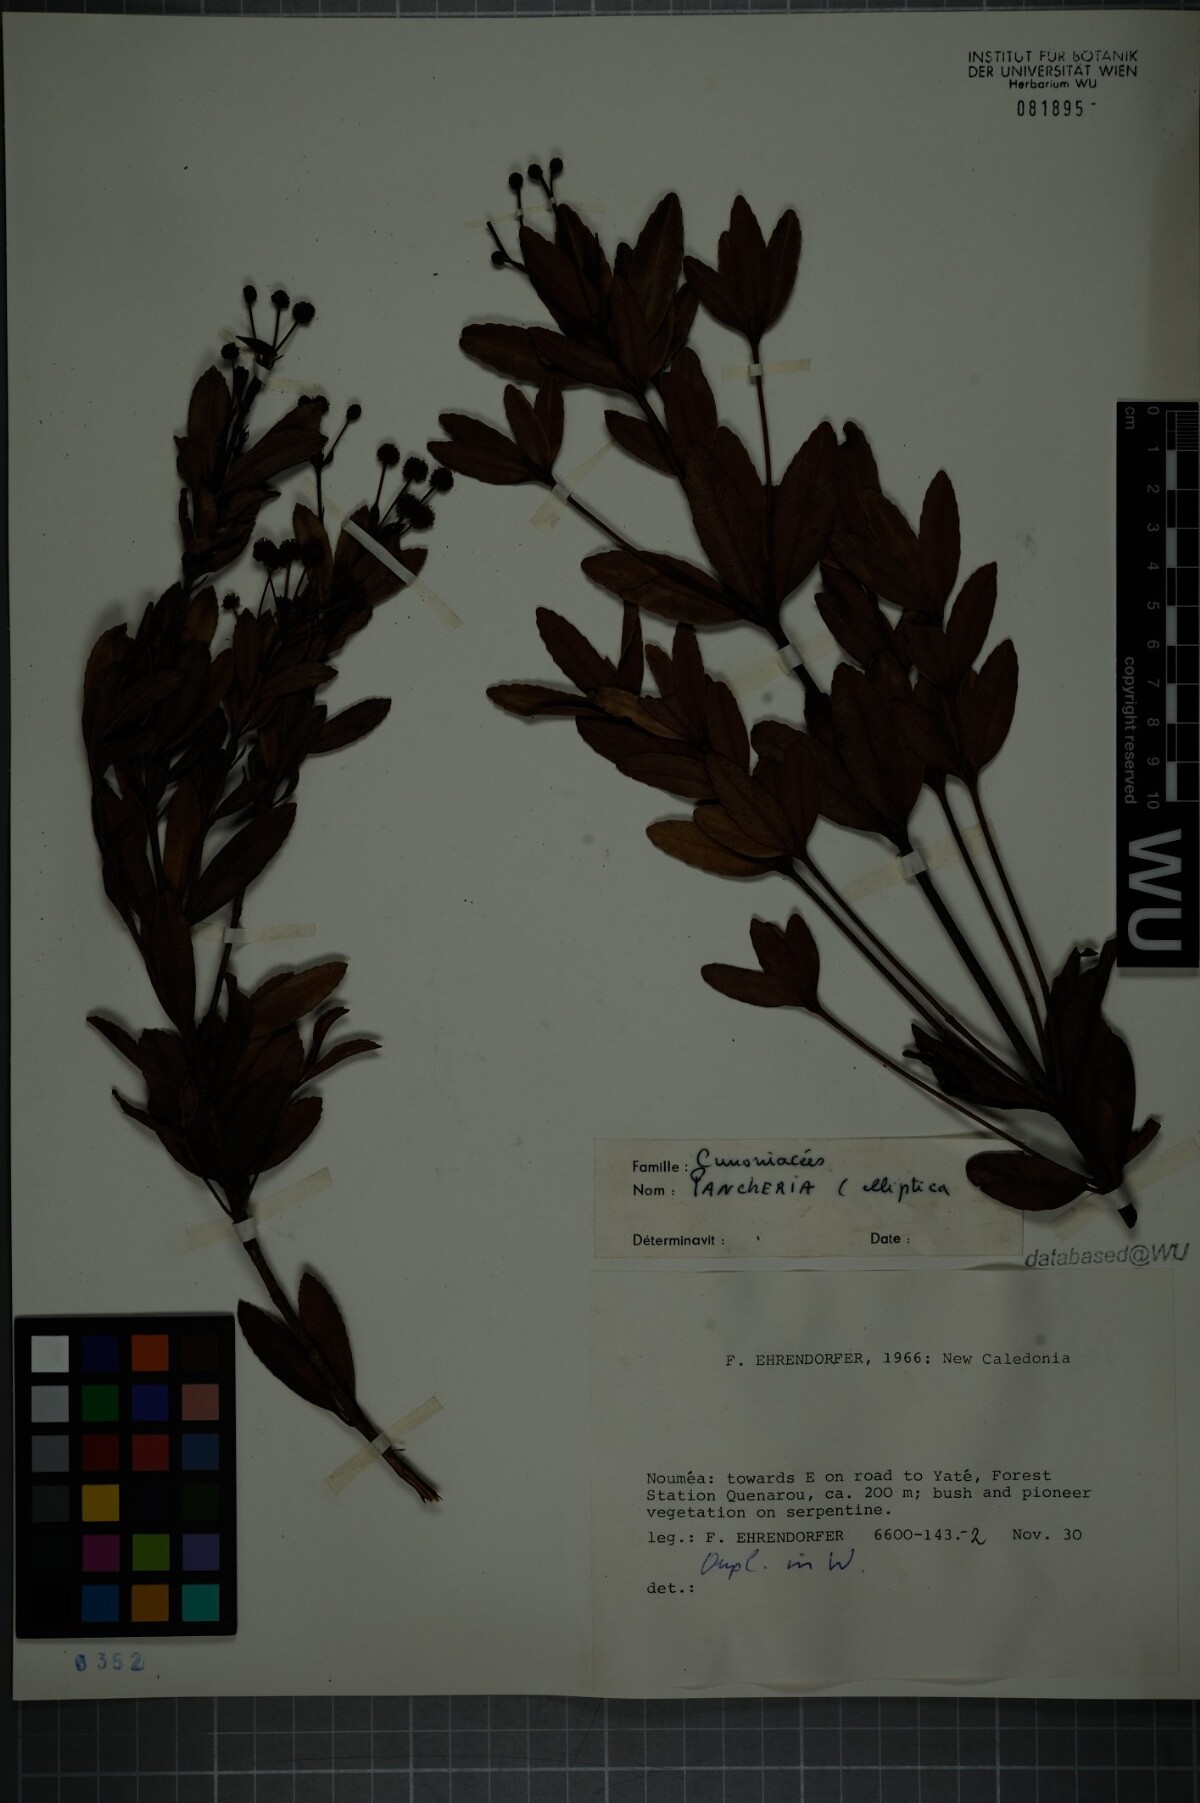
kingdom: Plantae
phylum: Tracheophyta
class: Magnoliopsida
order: Oxalidales
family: Cunoniaceae
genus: Pancheria
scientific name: Pancheria billardierei
